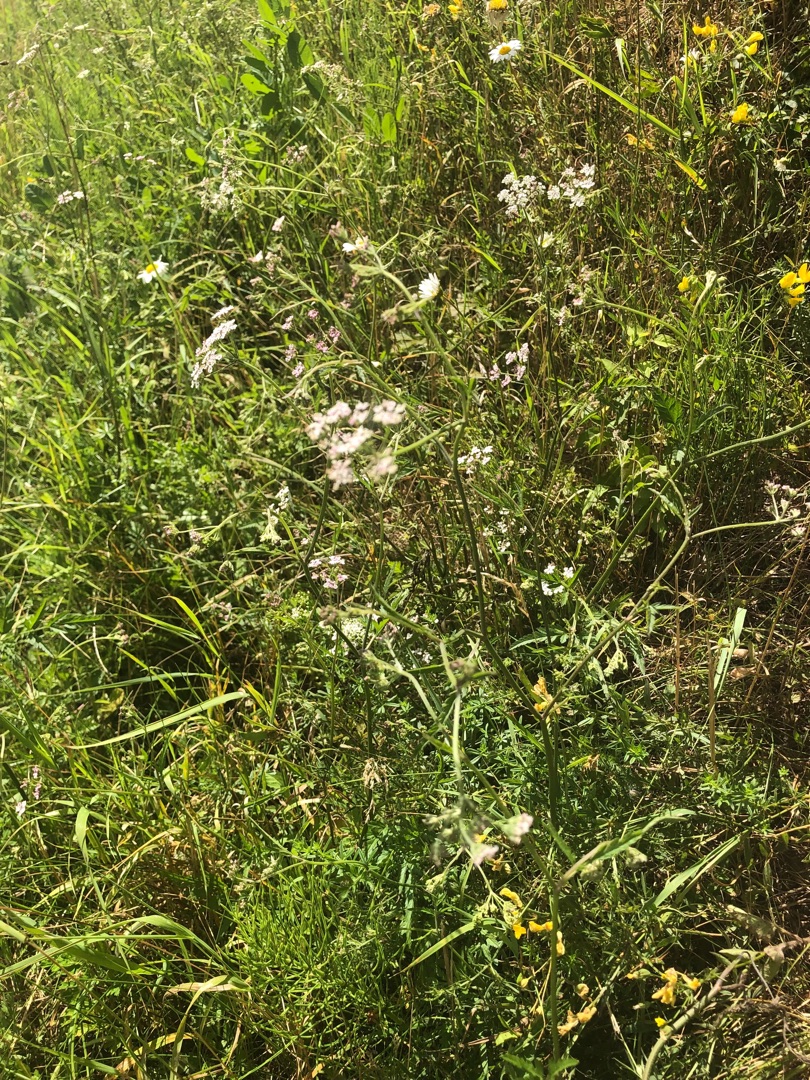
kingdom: Plantae
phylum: Tracheophyta
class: Magnoliopsida
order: Apiales
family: Apiaceae
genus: Torilis
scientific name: Torilis japonica
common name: Hvas randfrø
